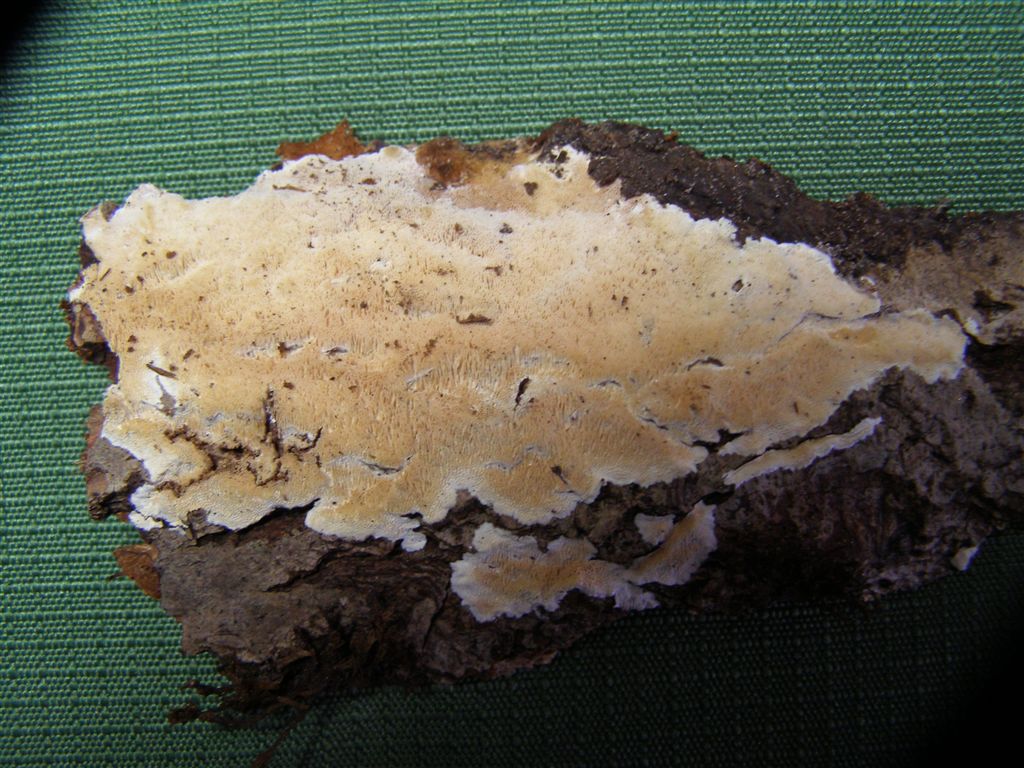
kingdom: Fungi
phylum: Basidiomycota
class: Agaricomycetes
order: Polyporales
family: Steccherinaceae
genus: Junghuhnia
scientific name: Junghuhnia nitida
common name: almindelig skønporesvamp
